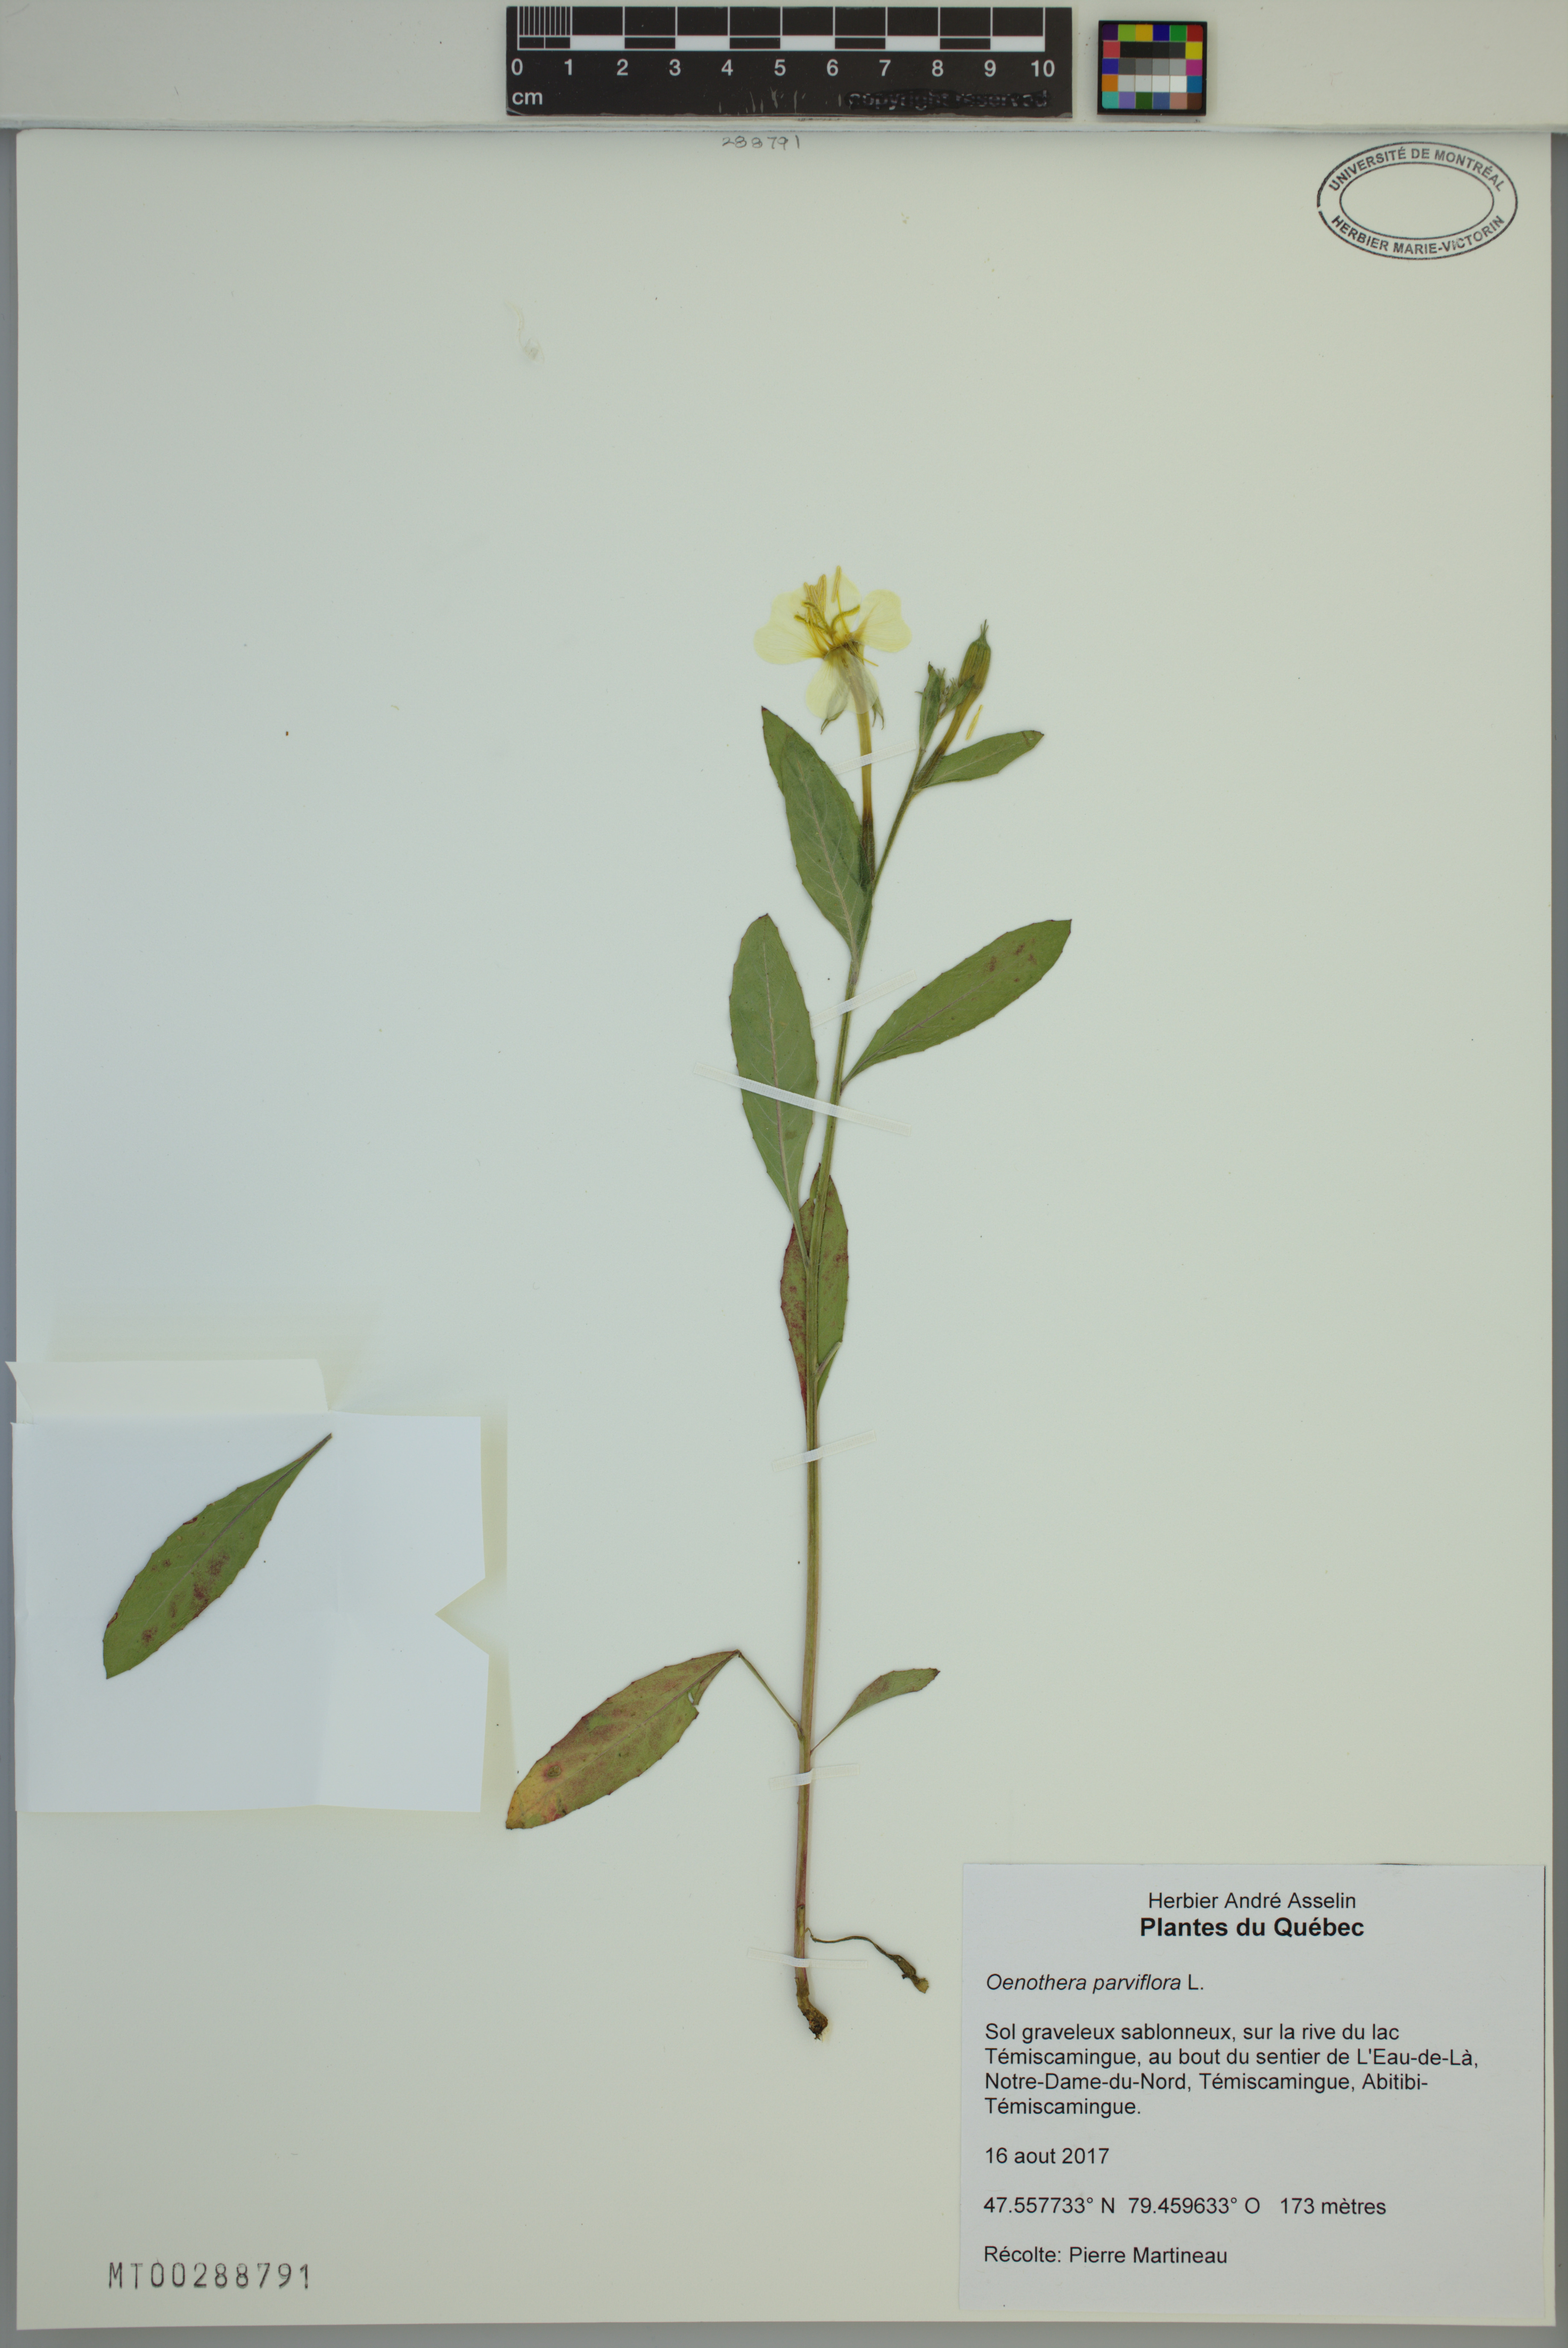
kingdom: Plantae
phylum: Tracheophyta
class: Magnoliopsida
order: Myrtales
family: Onagraceae
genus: Oenothera
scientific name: Oenothera parviflora
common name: Least evening-primrose
